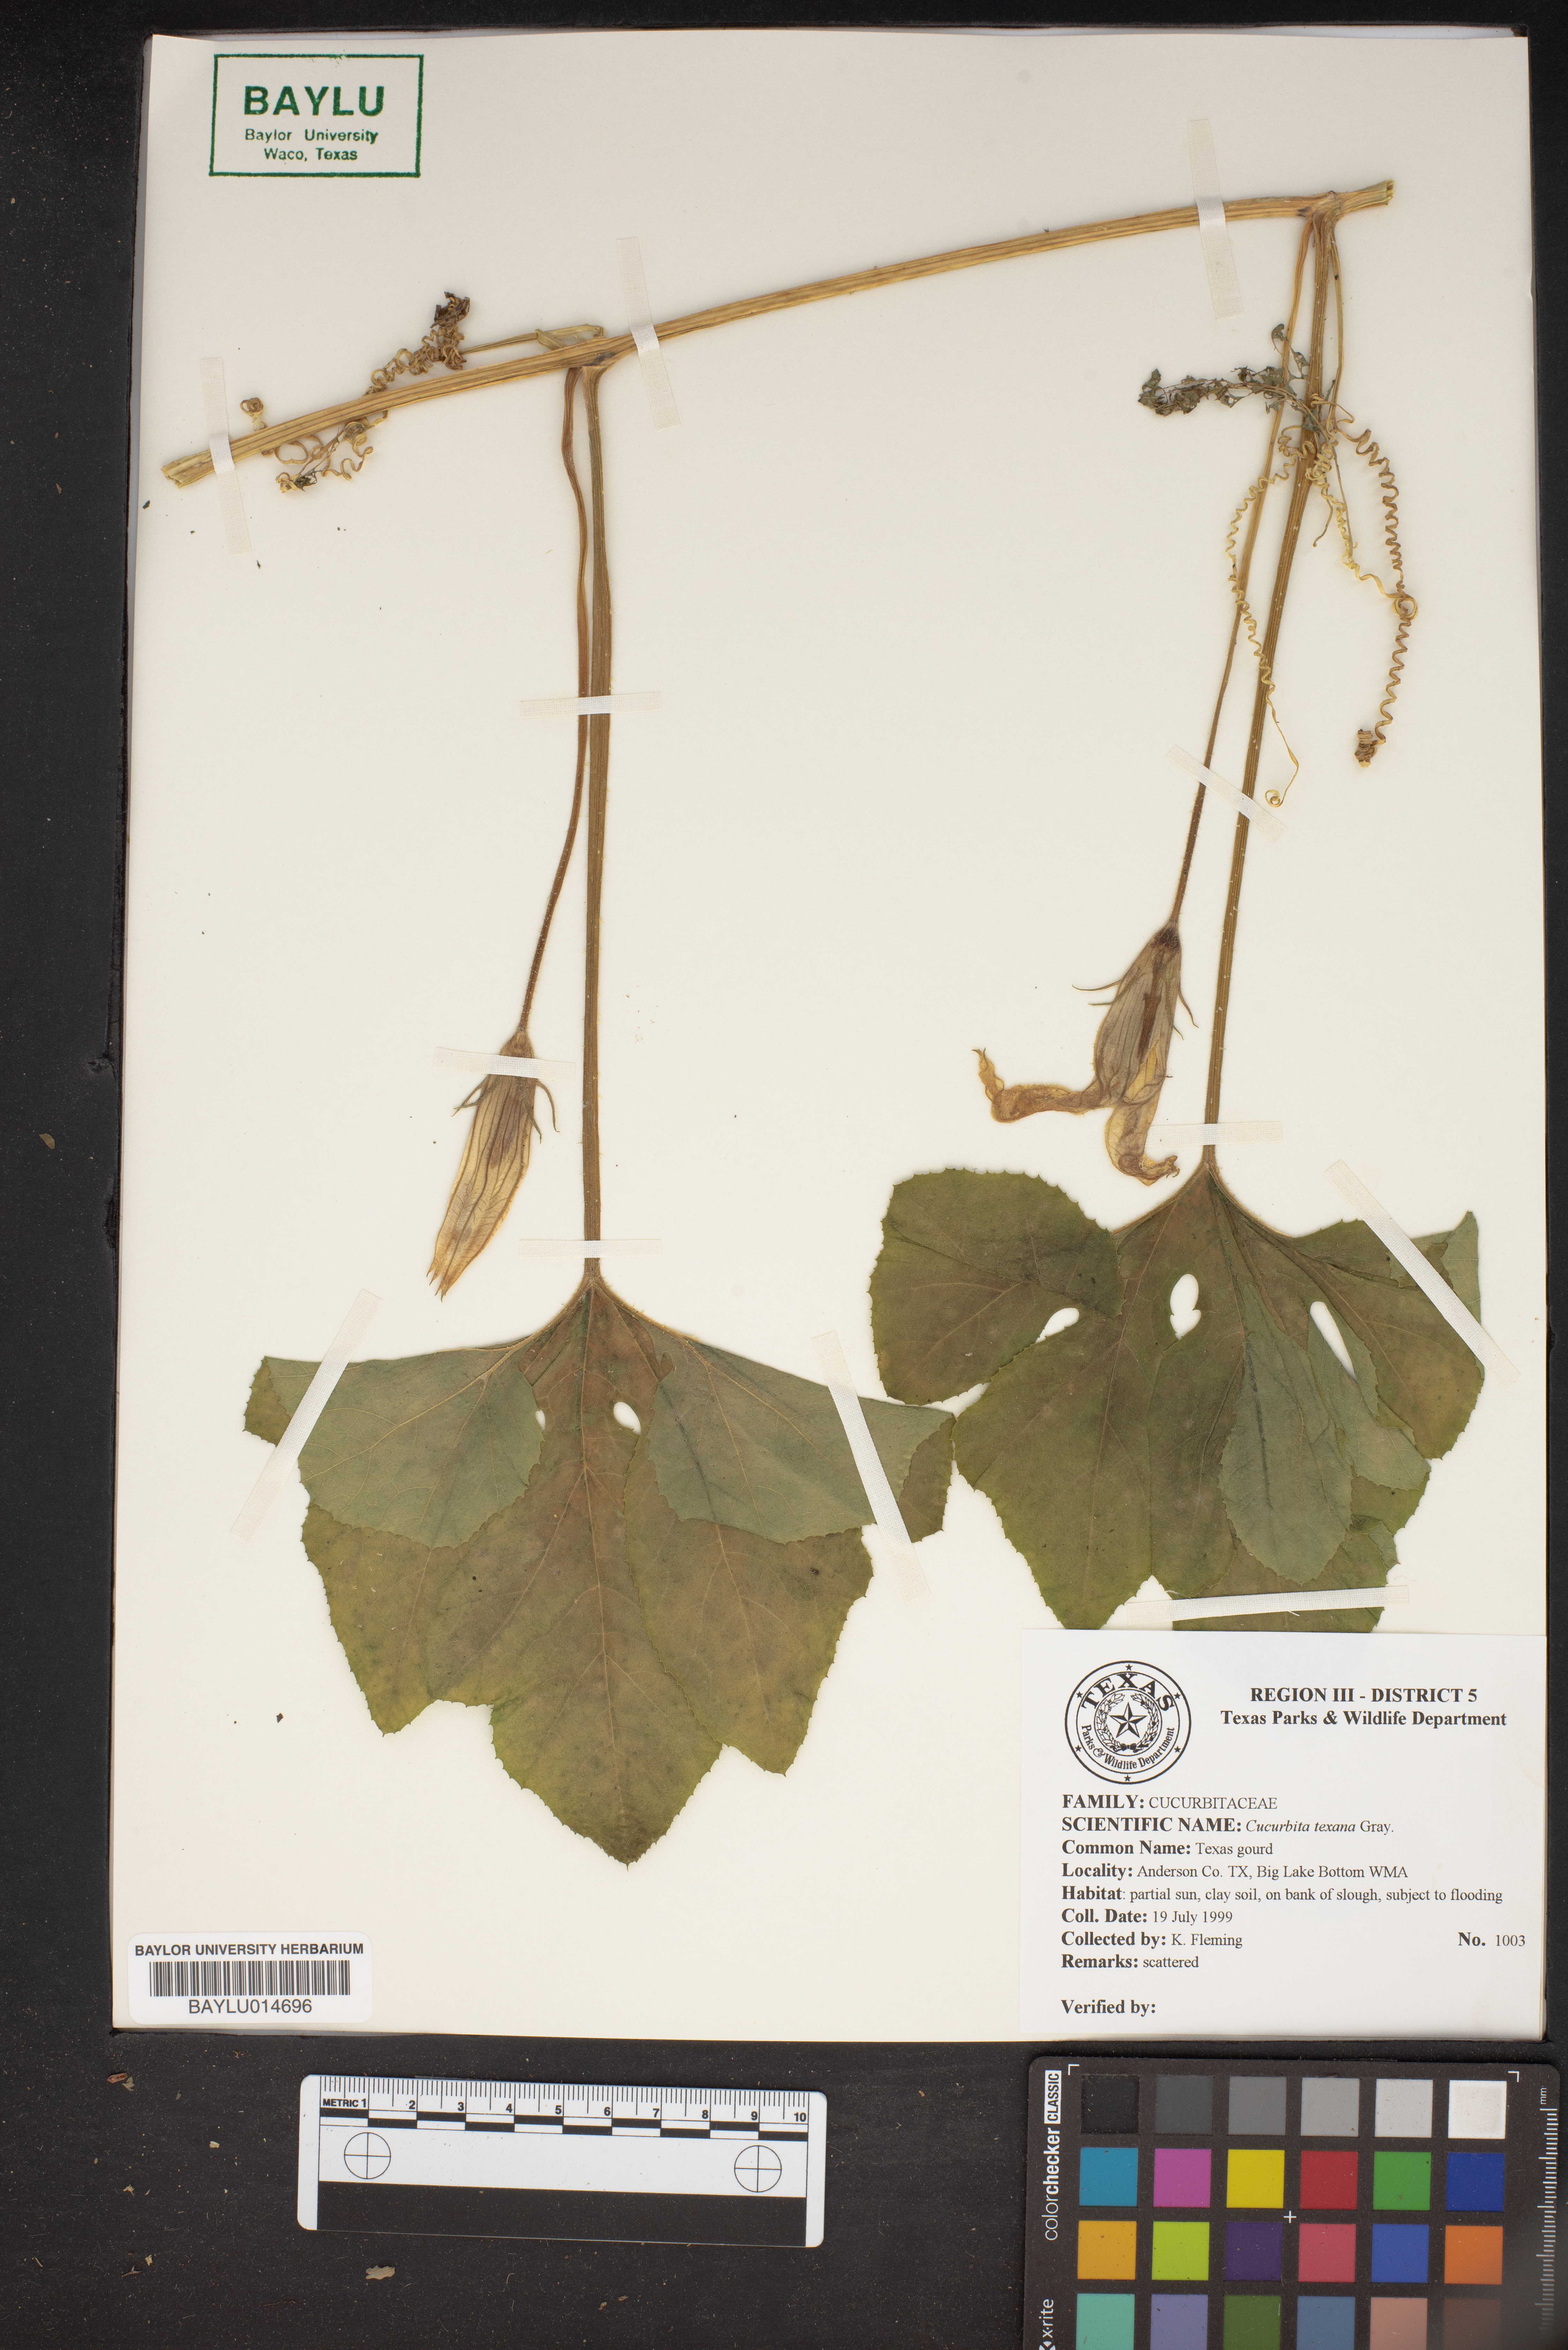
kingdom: Plantae
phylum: Tracheophyta
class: Magnoliopsida
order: Cucurbitales
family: Cucurbitaceae
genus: Cucurbita
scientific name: Cucurbita melopepo
